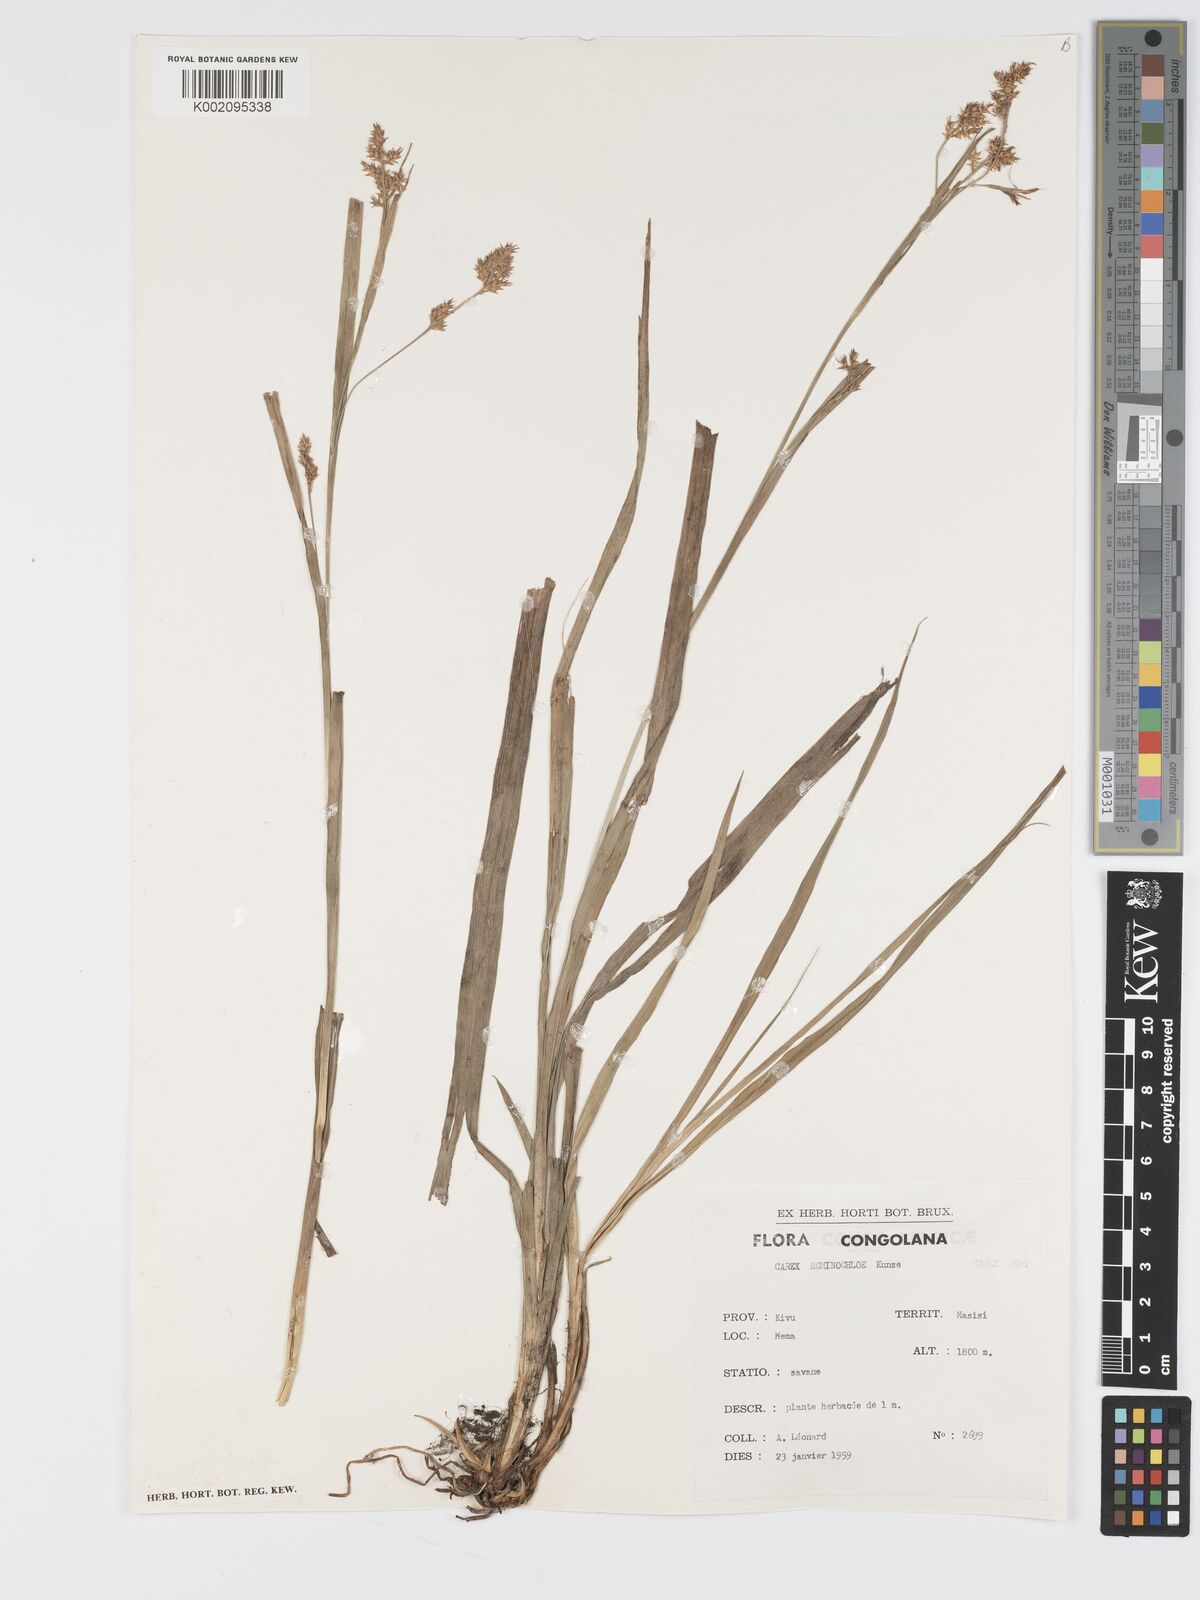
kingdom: Plantae
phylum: Tracheophyta
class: Liliopsida
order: Poales
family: Cyperaceae
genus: Carex
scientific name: Carex echinochloe
